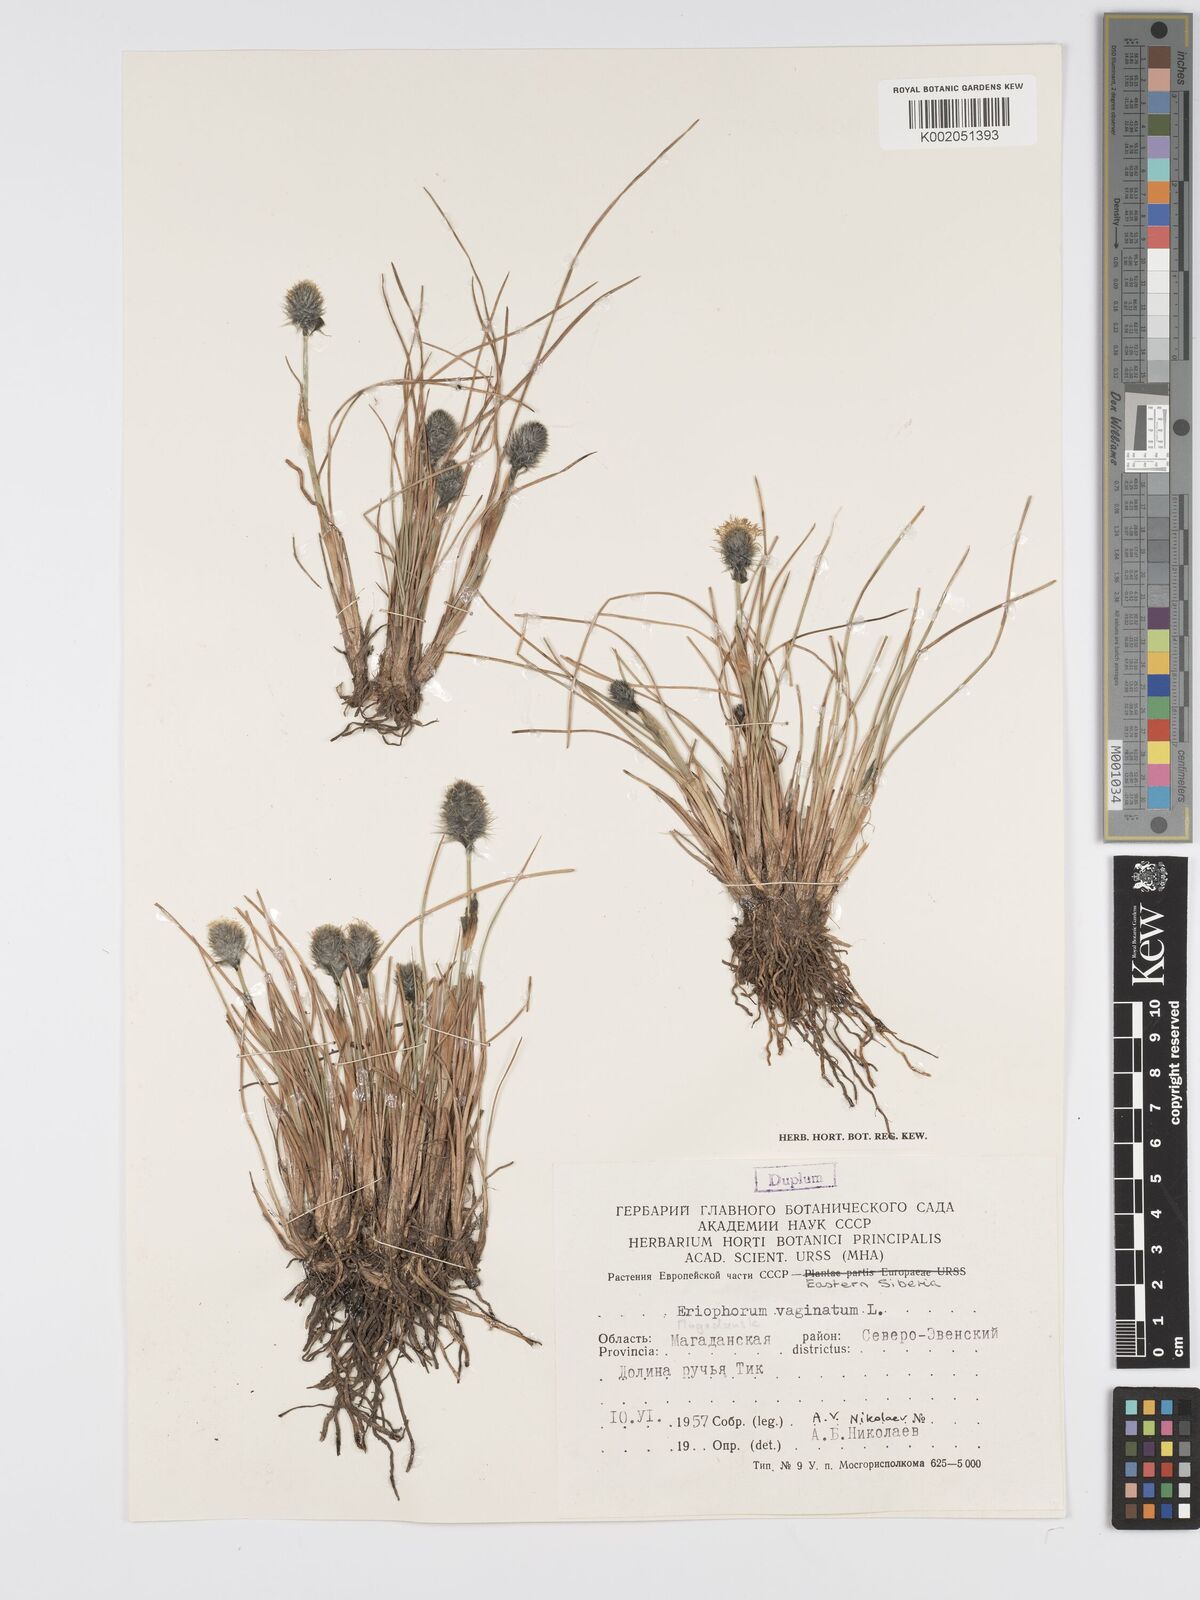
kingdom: Plantae
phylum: Tracheophyta
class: Liliopsida
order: Poales
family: Cyperaceae
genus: Eriophorum
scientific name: Eriophorum vaginatum
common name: Hare's-tail cottongrass
